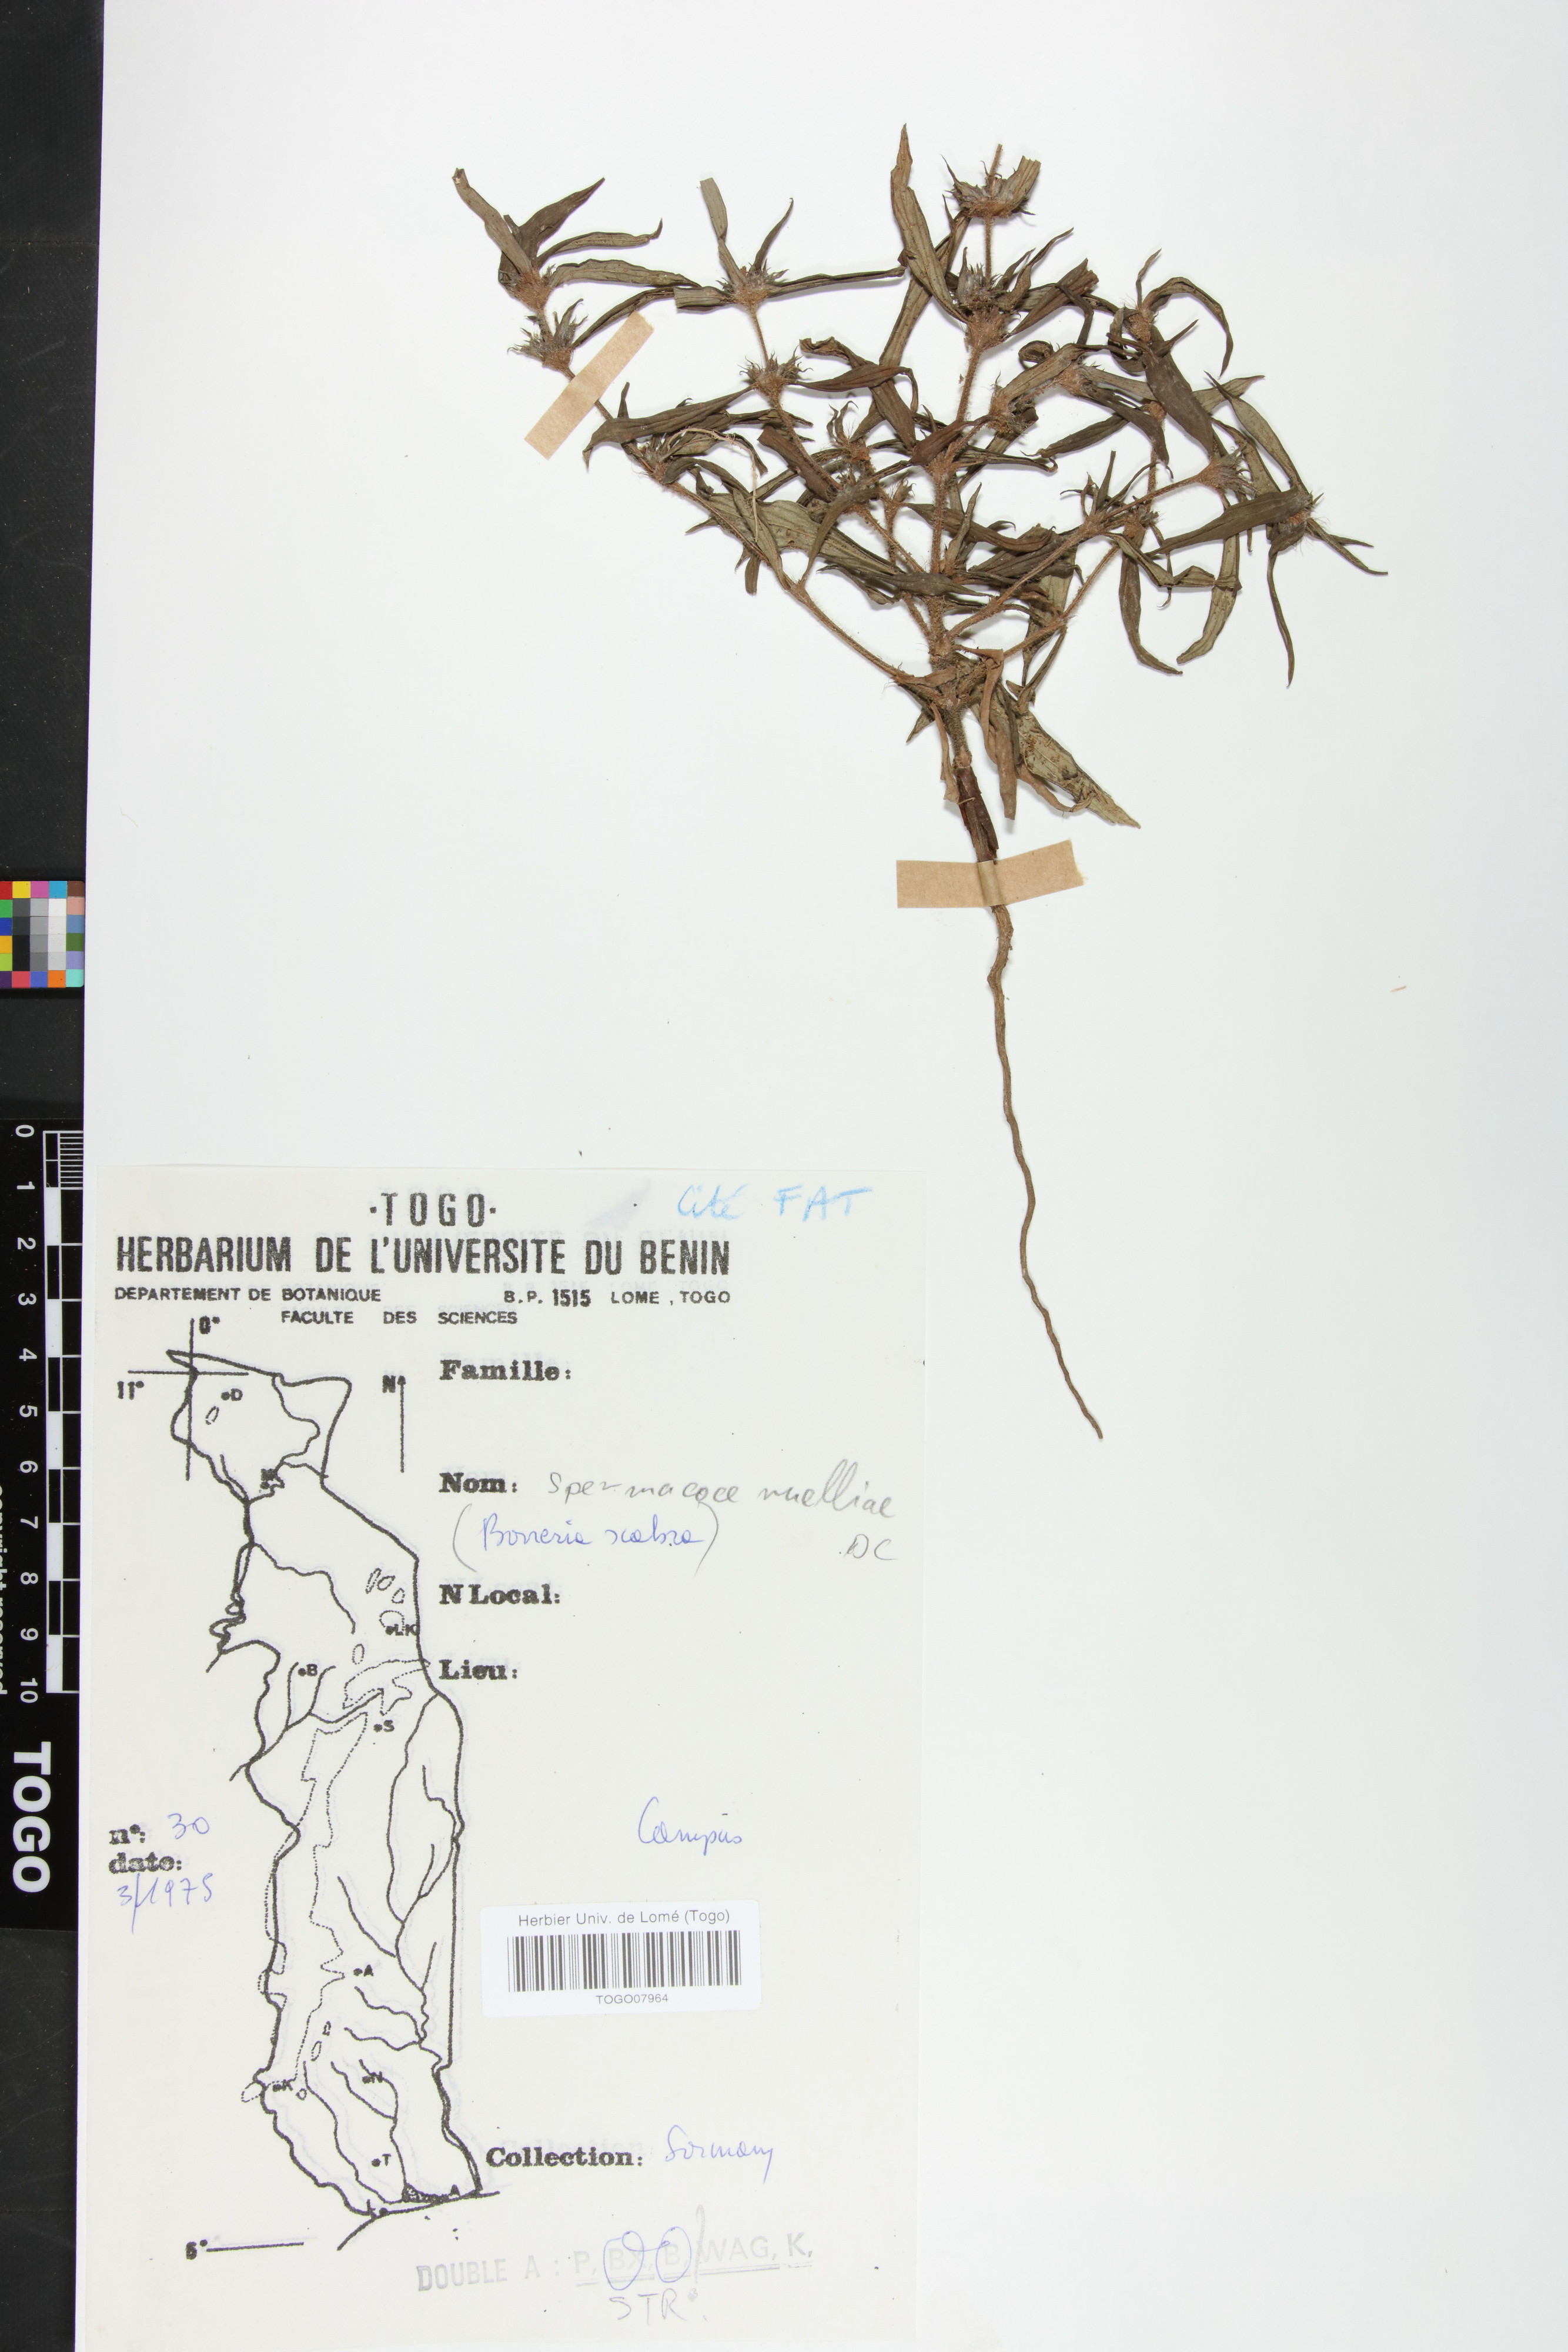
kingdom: Plantae
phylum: Tracheophyta
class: Magnoliopsida
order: Gentianales
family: Rubiaceae
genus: Spermacoce
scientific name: Spermacoce ruelliae
